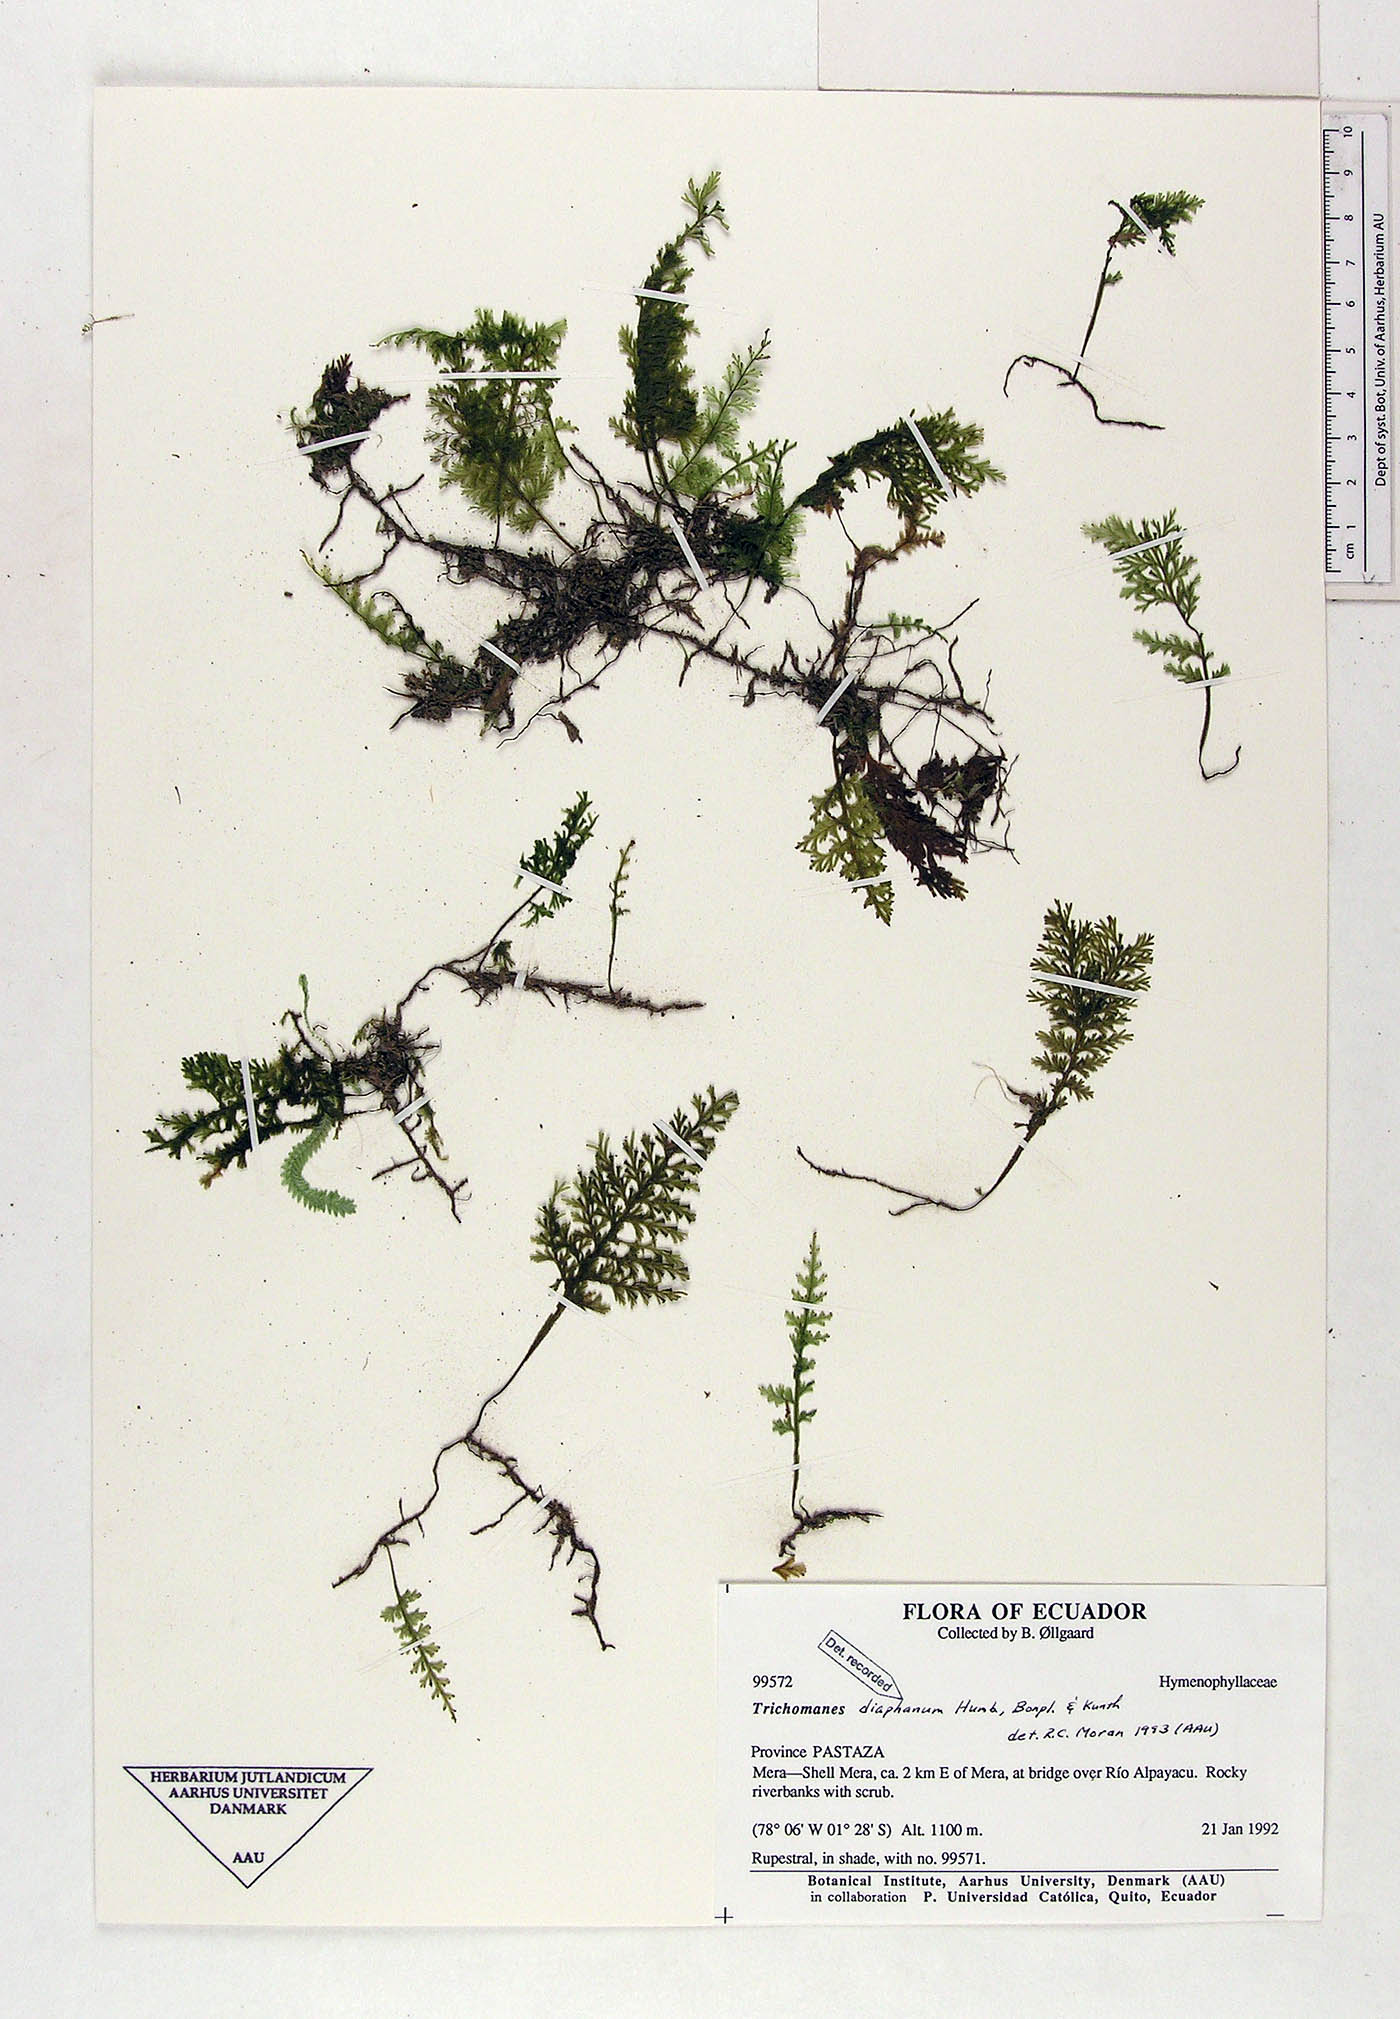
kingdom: Plantae
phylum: Tracheophyta
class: Polypodiopsida
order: Hymenophyllales
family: Hymenophyllaceae
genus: Polyphlebium
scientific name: Polyphlebium diaphanum
